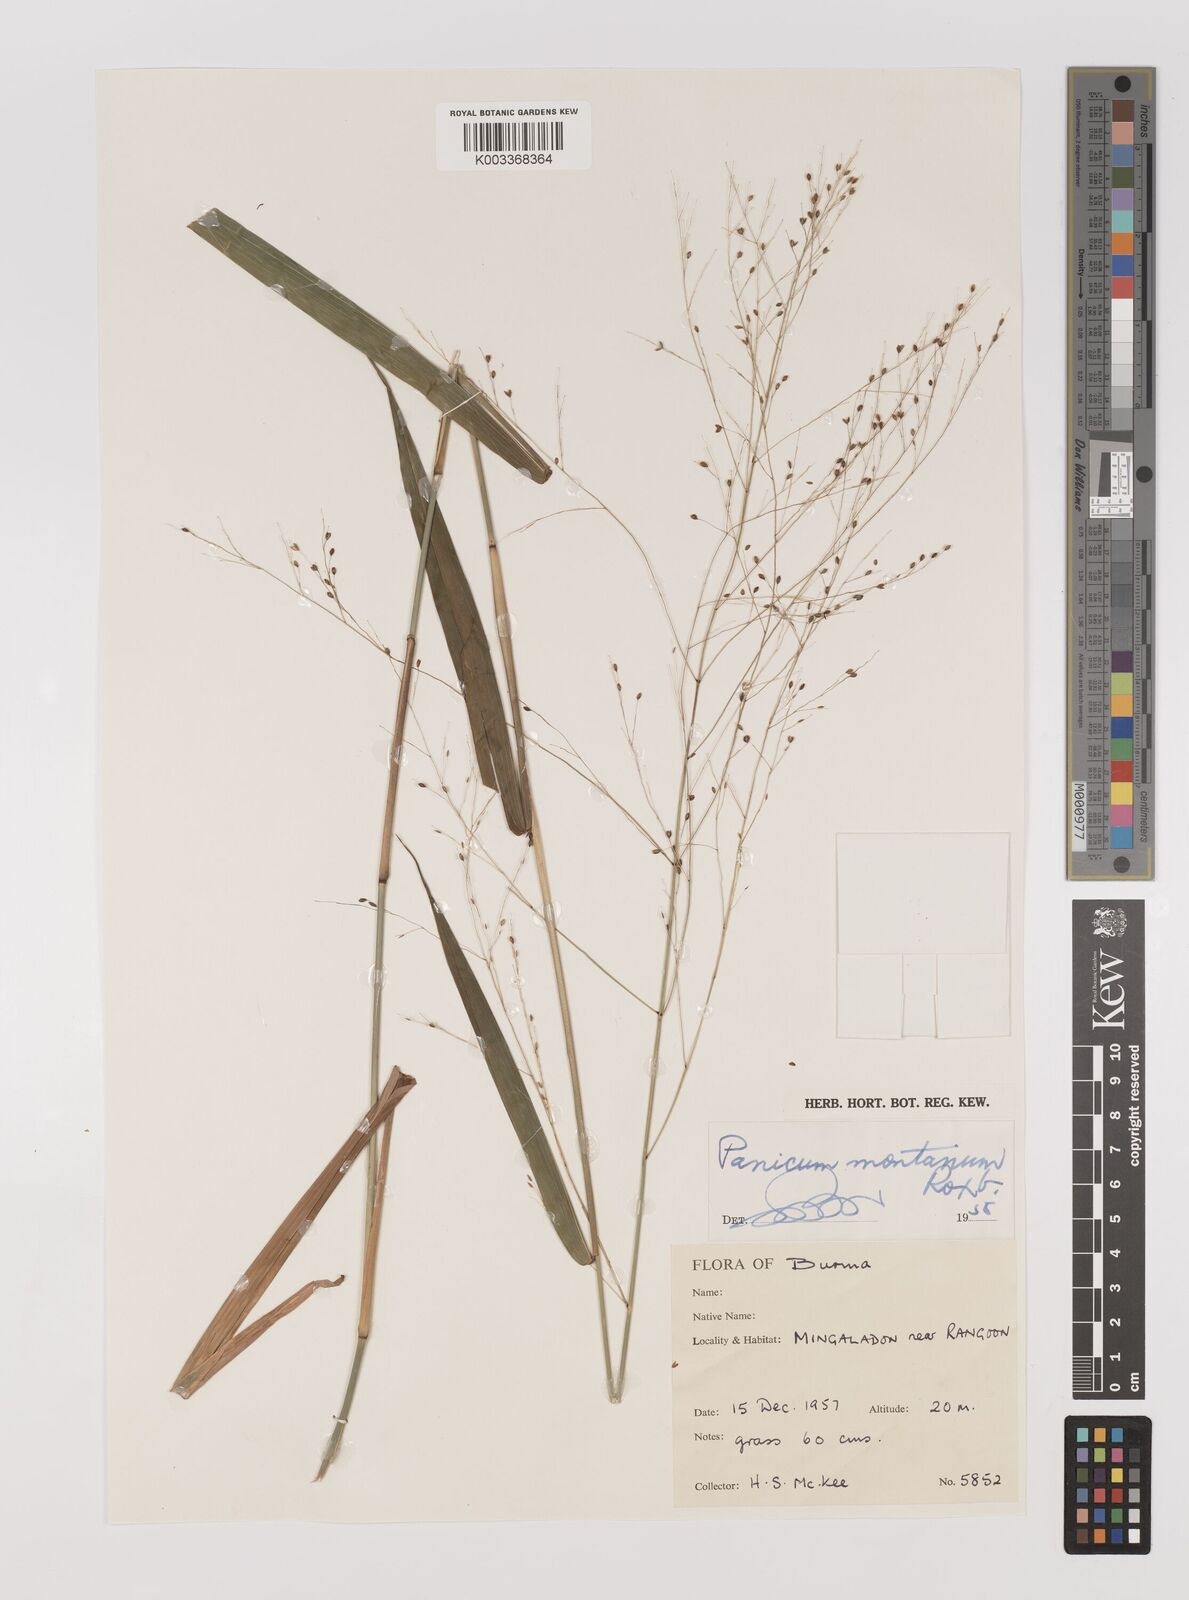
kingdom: Plantae
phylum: Tracheophyta
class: Liliopsida
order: Poales
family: Poaceae
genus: Panicum
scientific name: Panicum notatum
